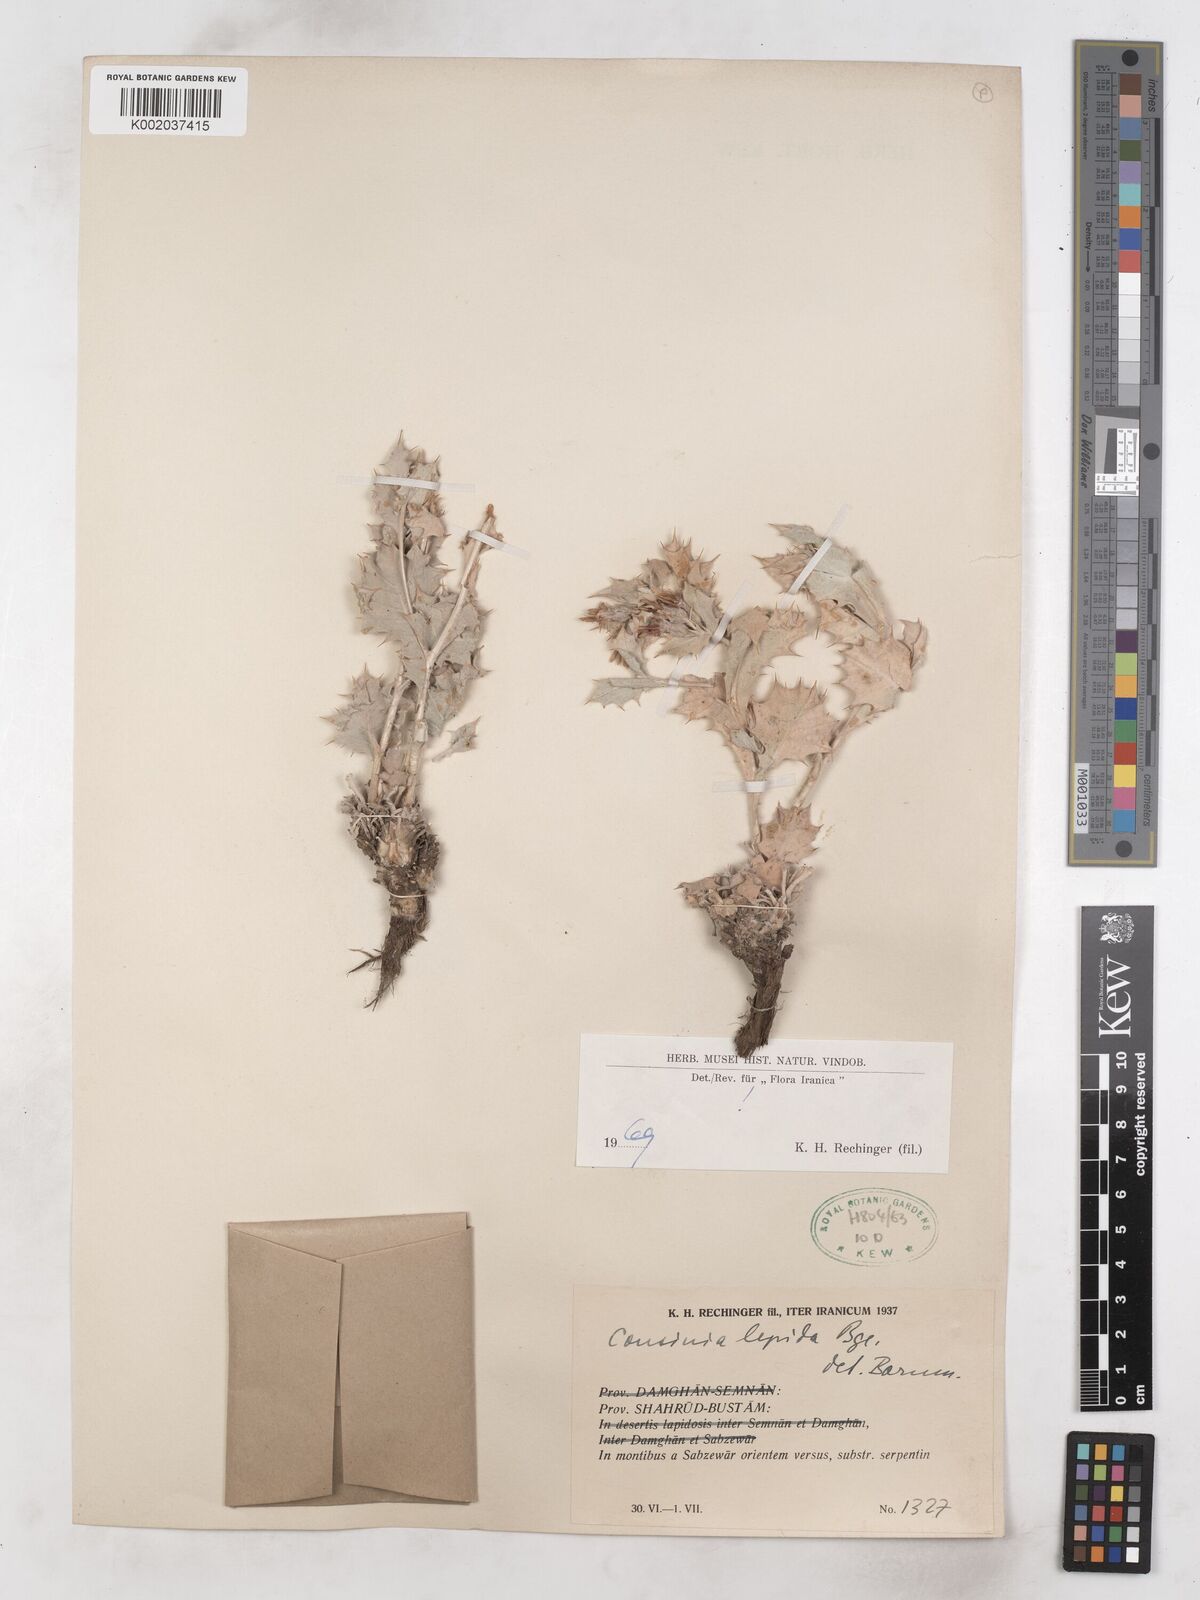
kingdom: Plantae
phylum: Tracheophyta
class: Magnoliopsida
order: Asterales
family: Asteraceae
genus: Cousinia
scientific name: Cousinia lepida
